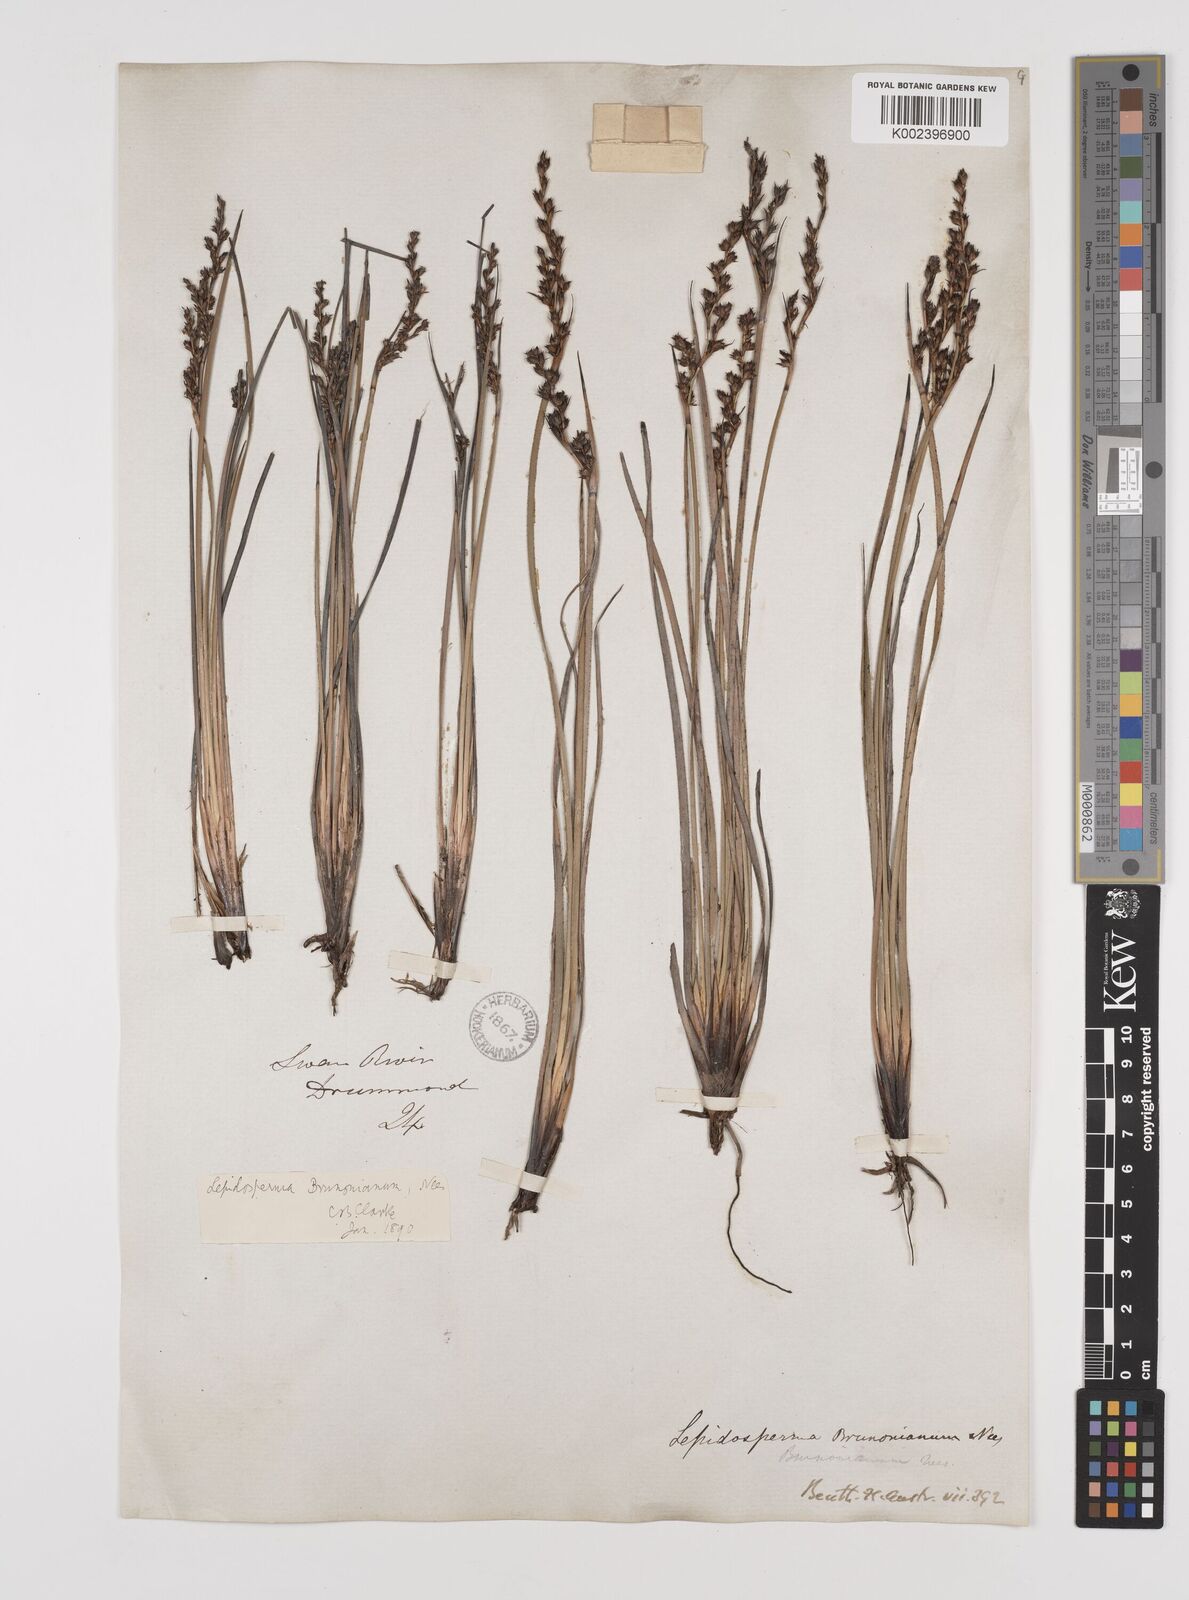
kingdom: Plantae
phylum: Tracheophyta
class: Liliopsida
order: Poales
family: Cyperaceae
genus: Lepidosperma
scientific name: Lepidosperma sieberi
